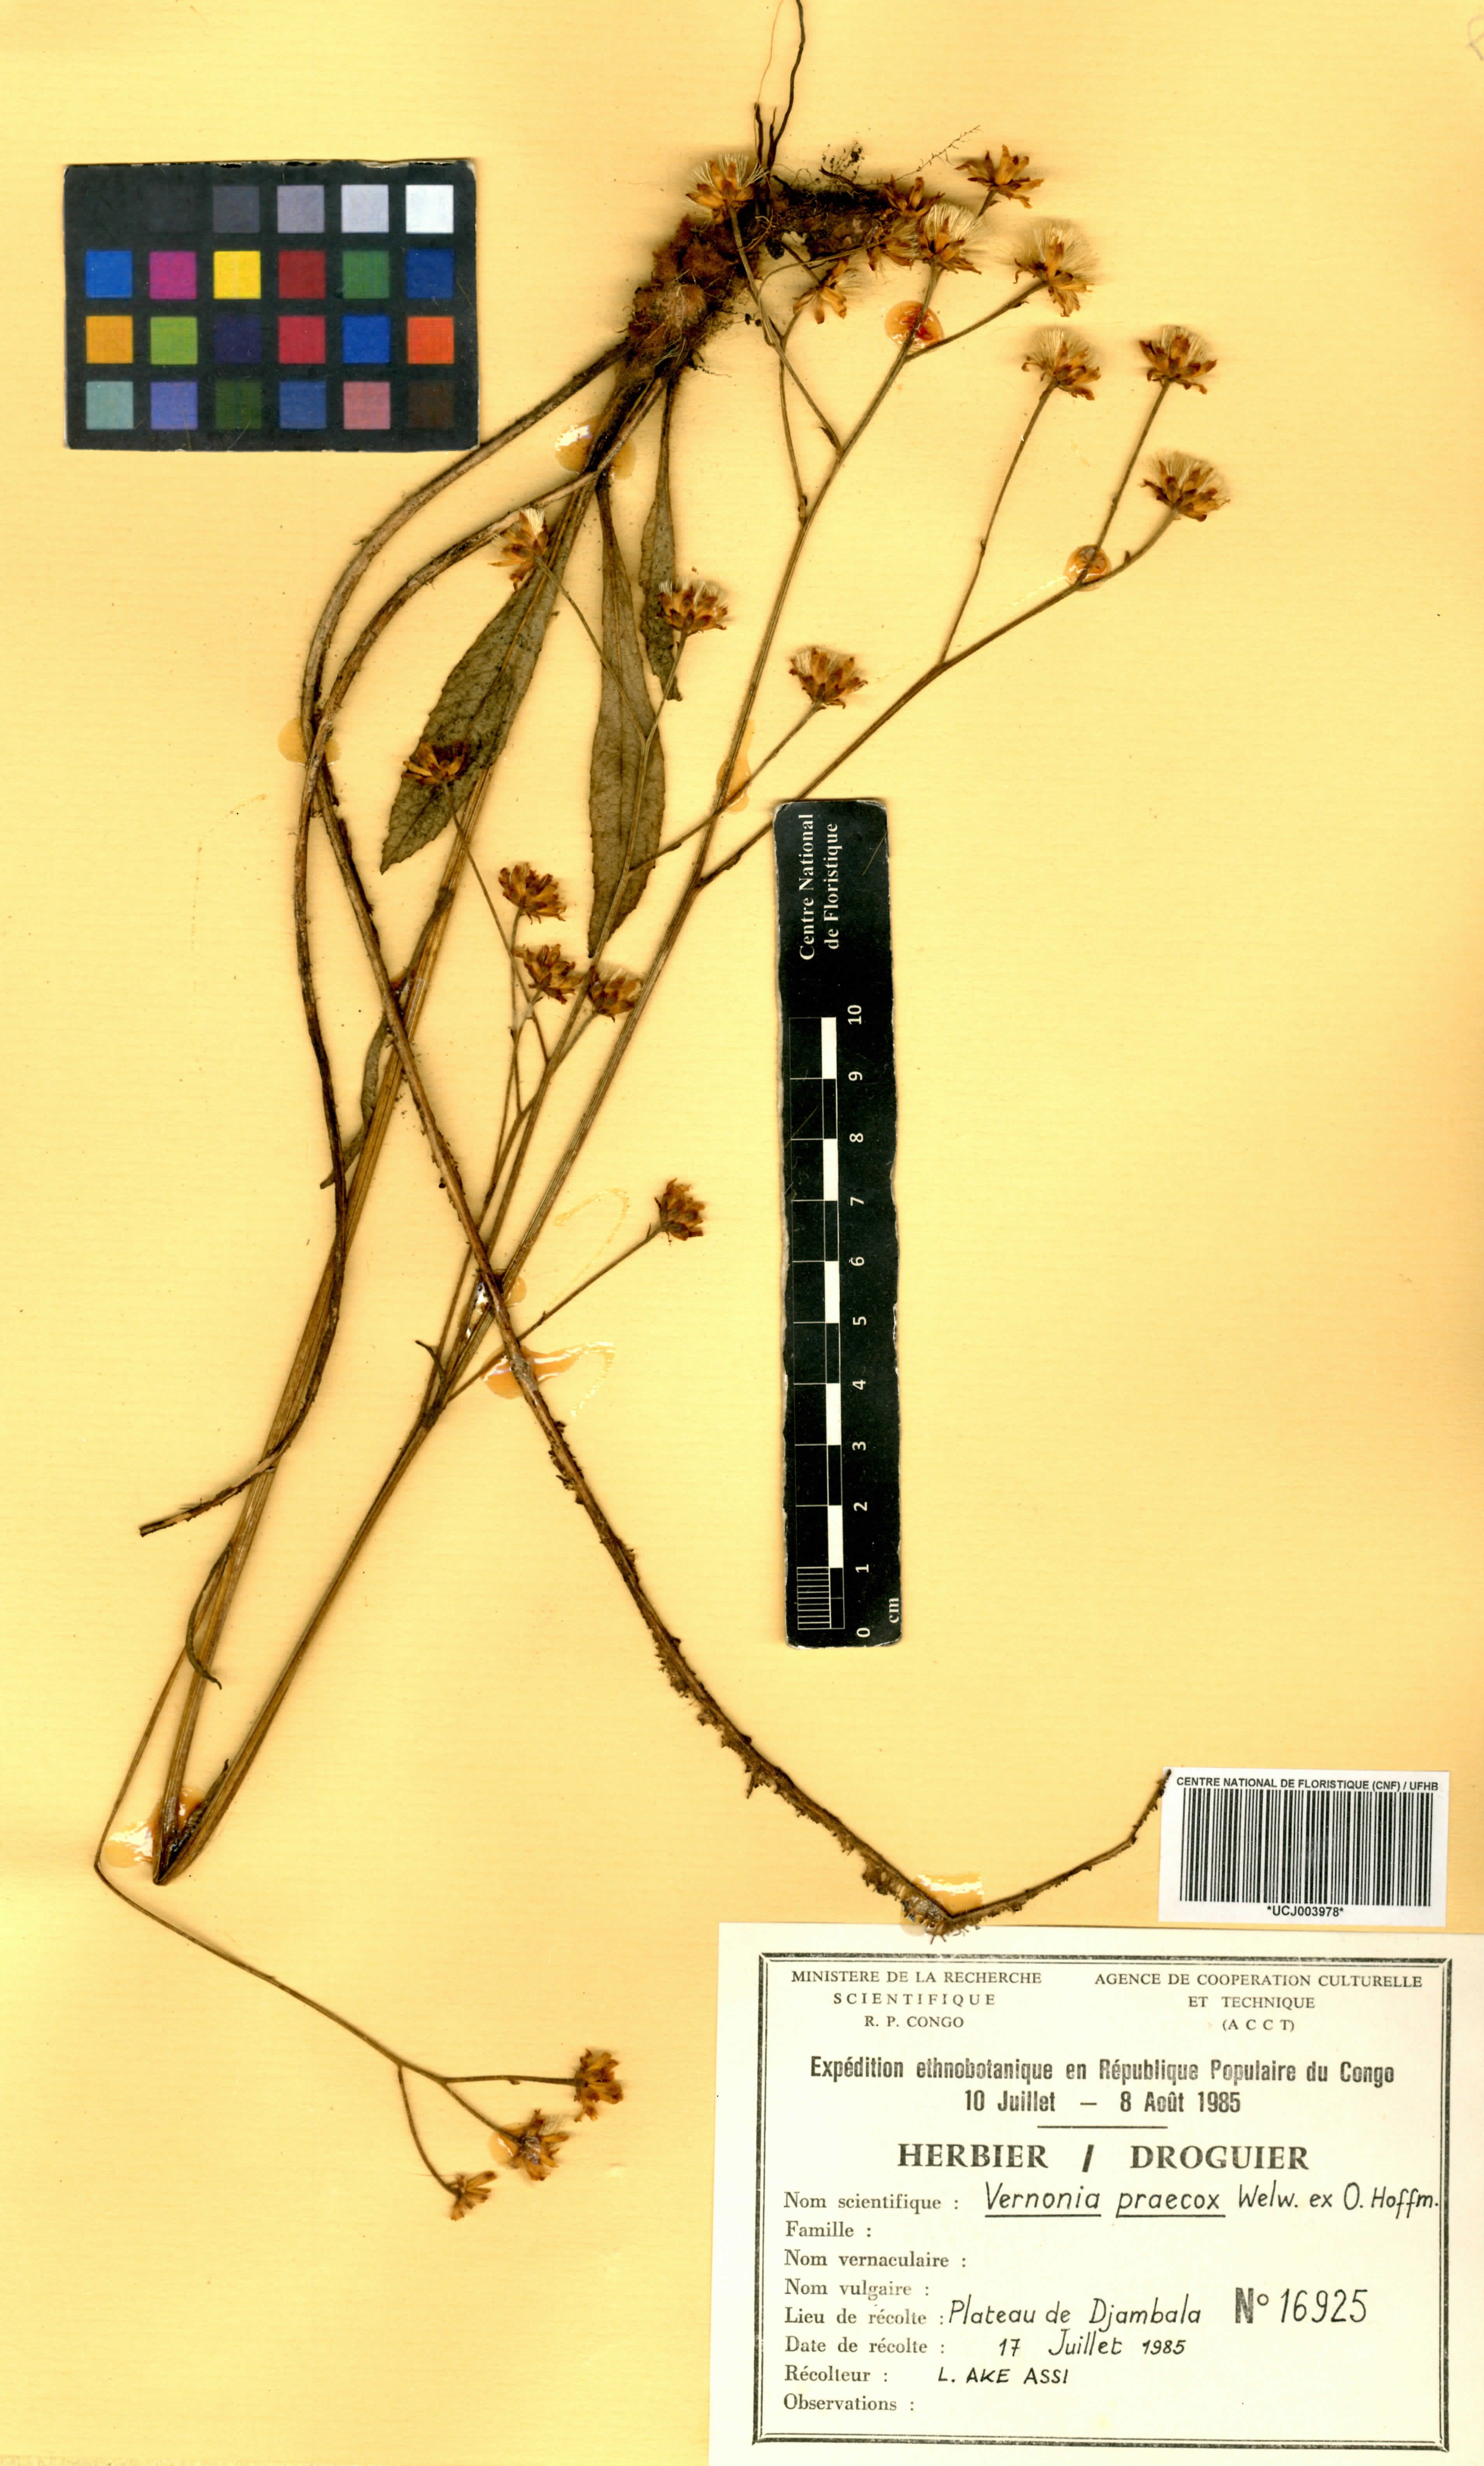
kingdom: Plantae
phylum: Tracheophyta
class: Magnoliopsida
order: Asterales
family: Asteraceae
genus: Vernonella
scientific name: Vernonella praecox
